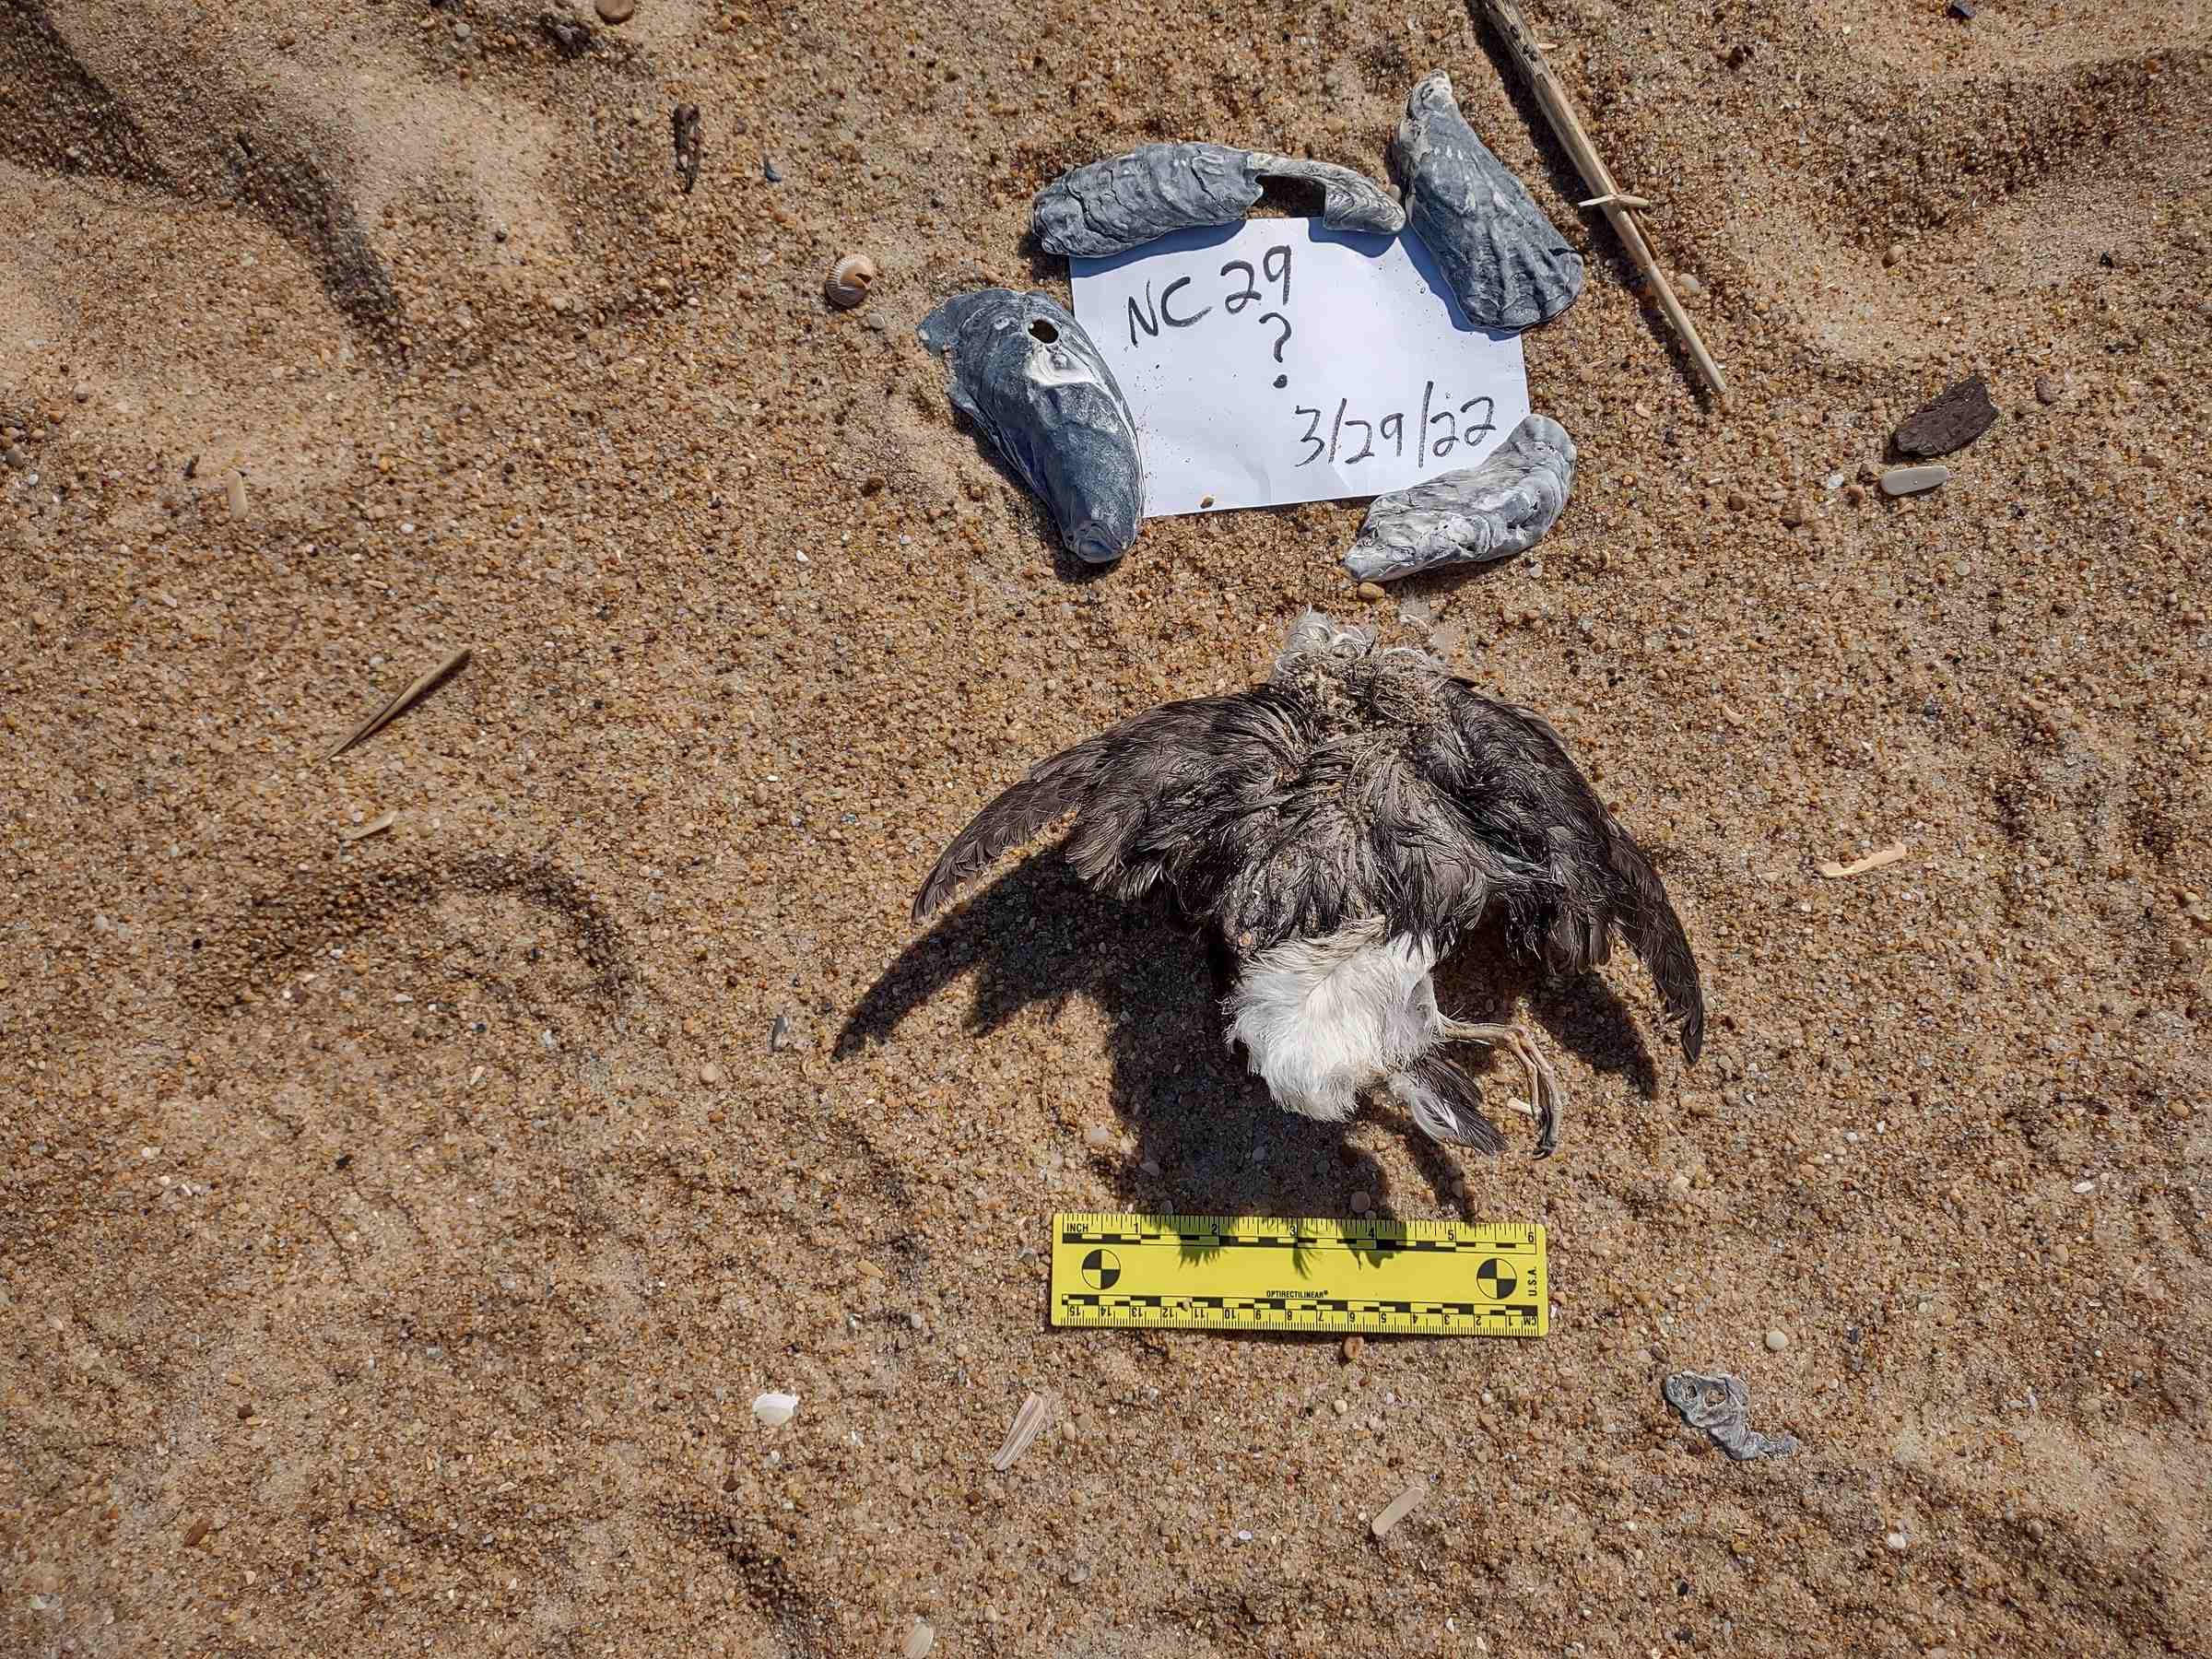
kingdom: Animalia
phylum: Chordata
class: Aves
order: Anseriformes
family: Anatidae
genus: Bucephala
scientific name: Bucephala albeola
